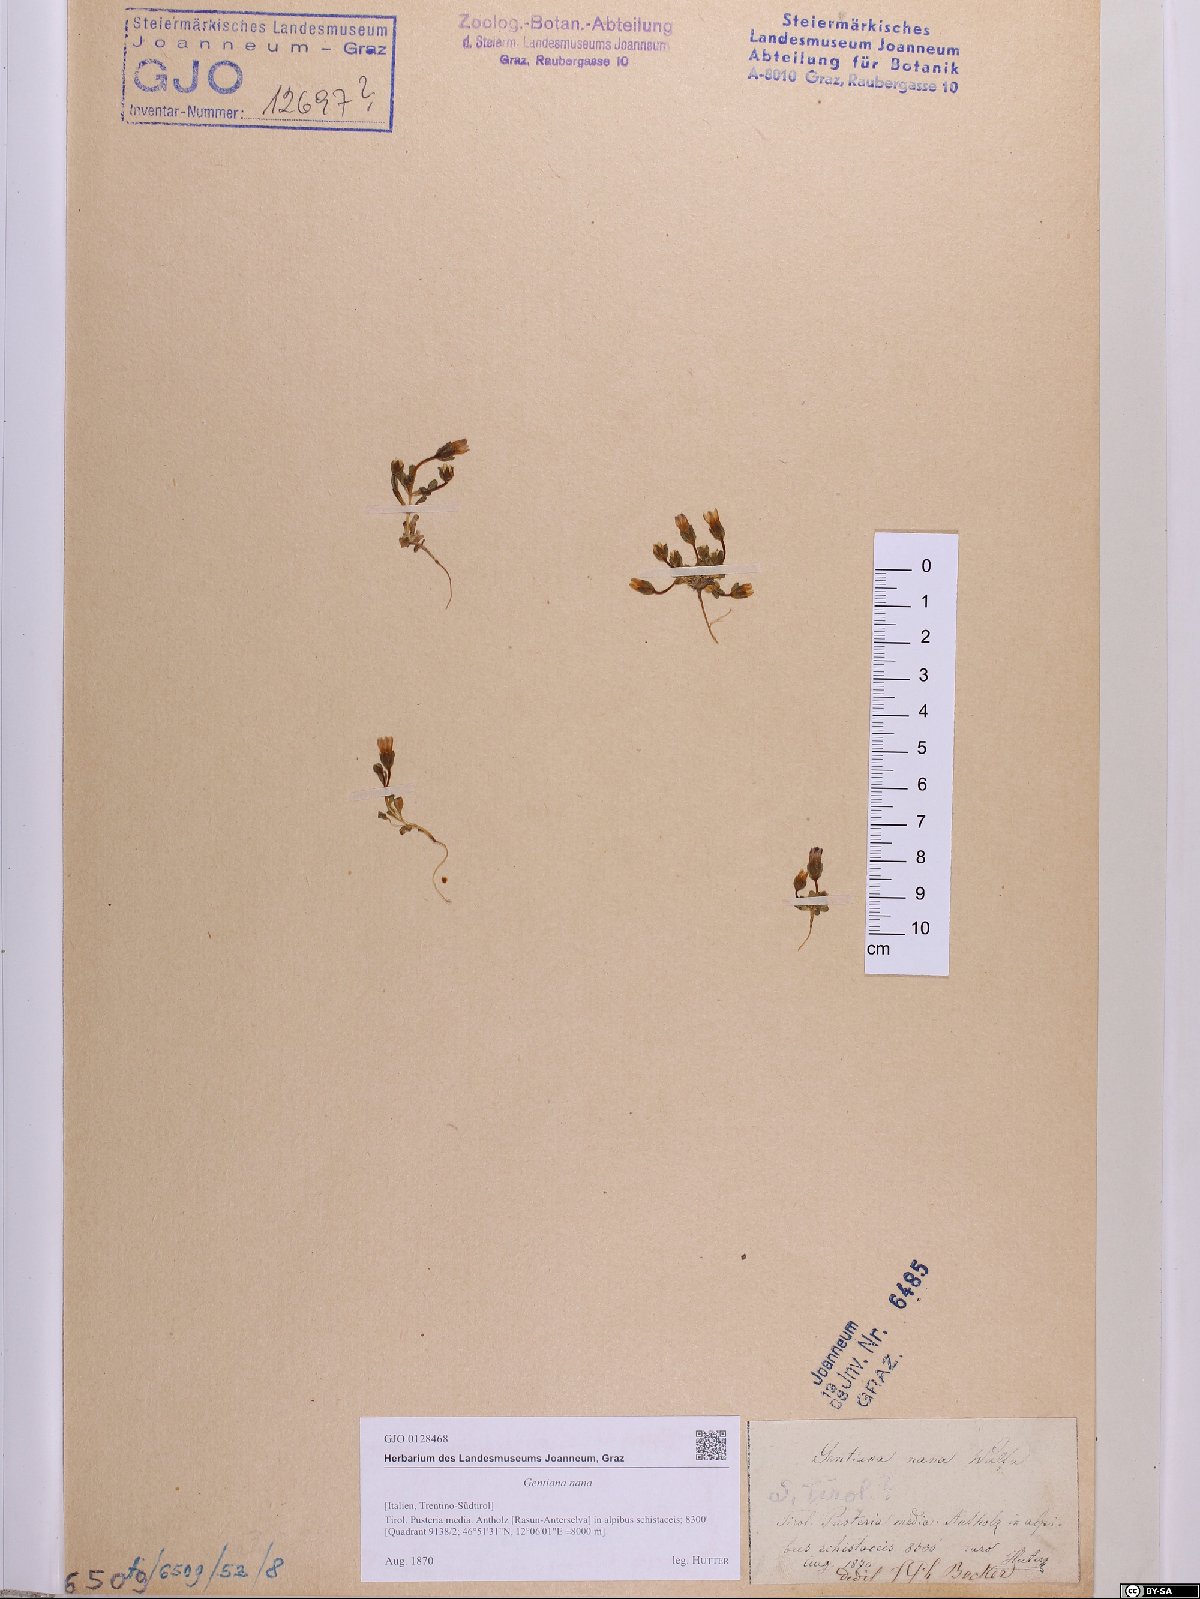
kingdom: Plantae
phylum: Tracheophyta
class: Magnoliopsida
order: Gentianales
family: Gentianaceae
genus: Comastoma
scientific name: Comastoma nanum
